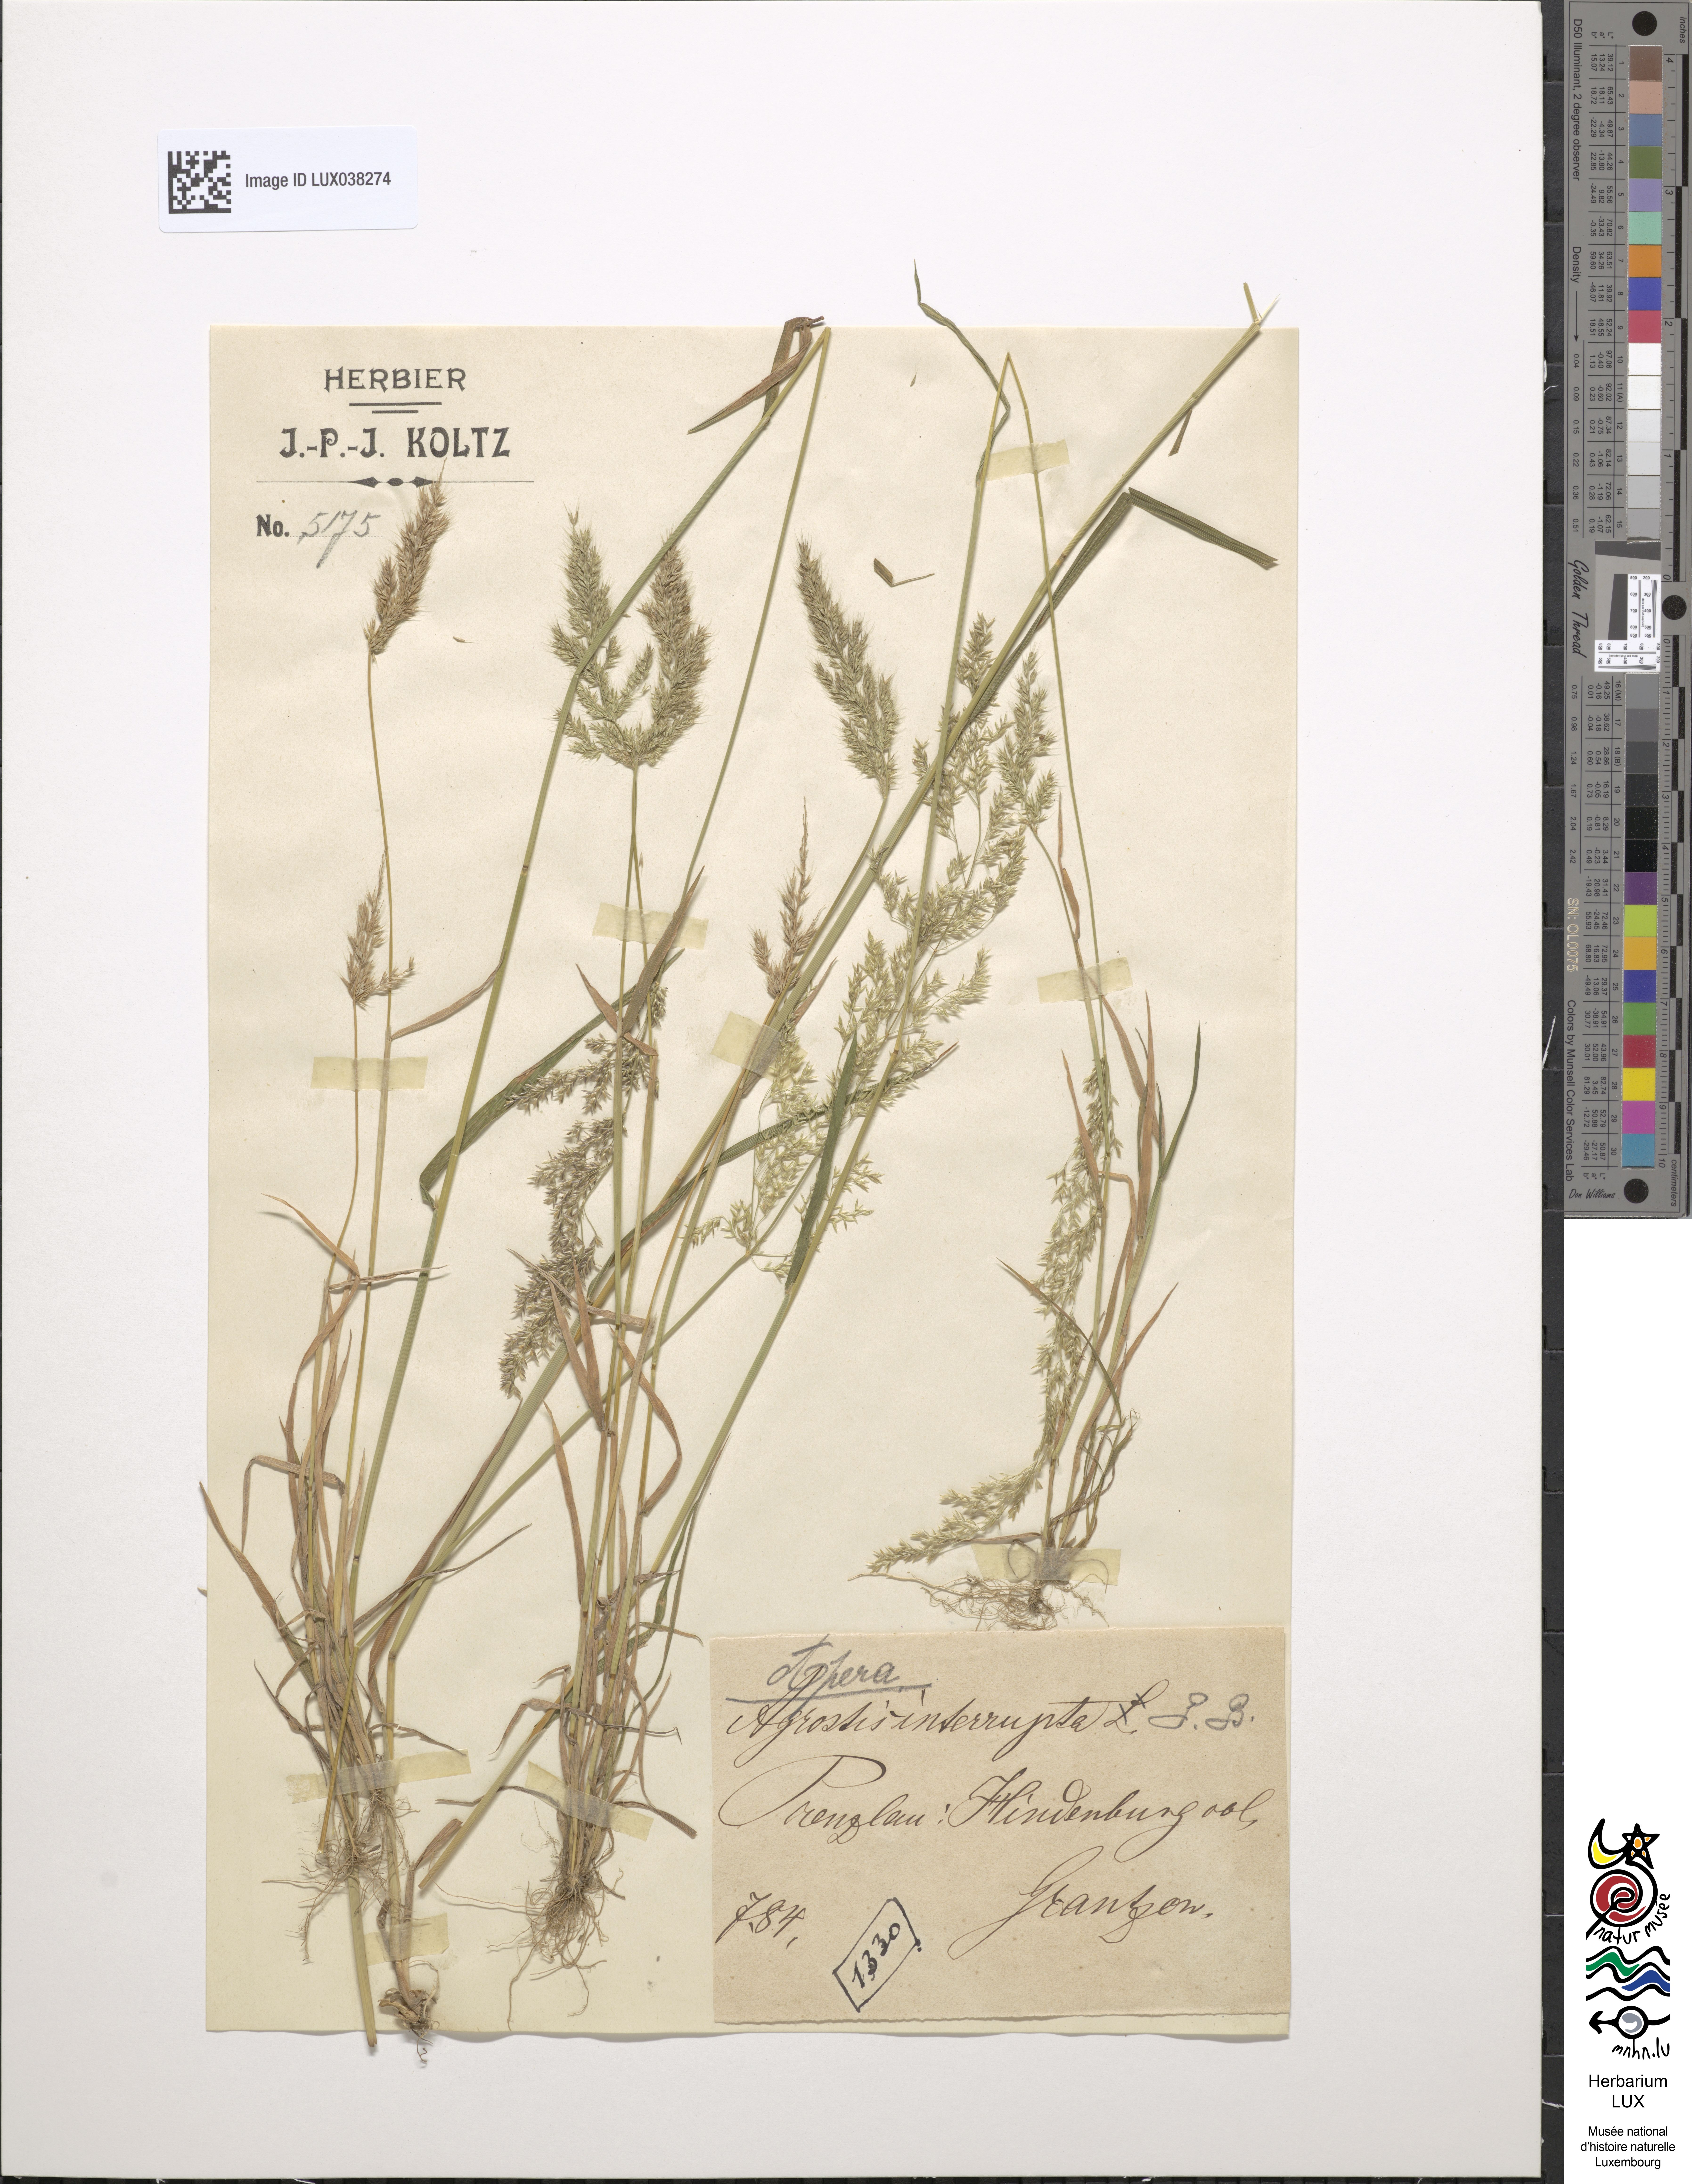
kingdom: Plantae
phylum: Tracheophyta
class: Liliopsida
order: Poales
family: Poaceae
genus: Apera
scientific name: Apera interrupta
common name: Dense silky-bent
